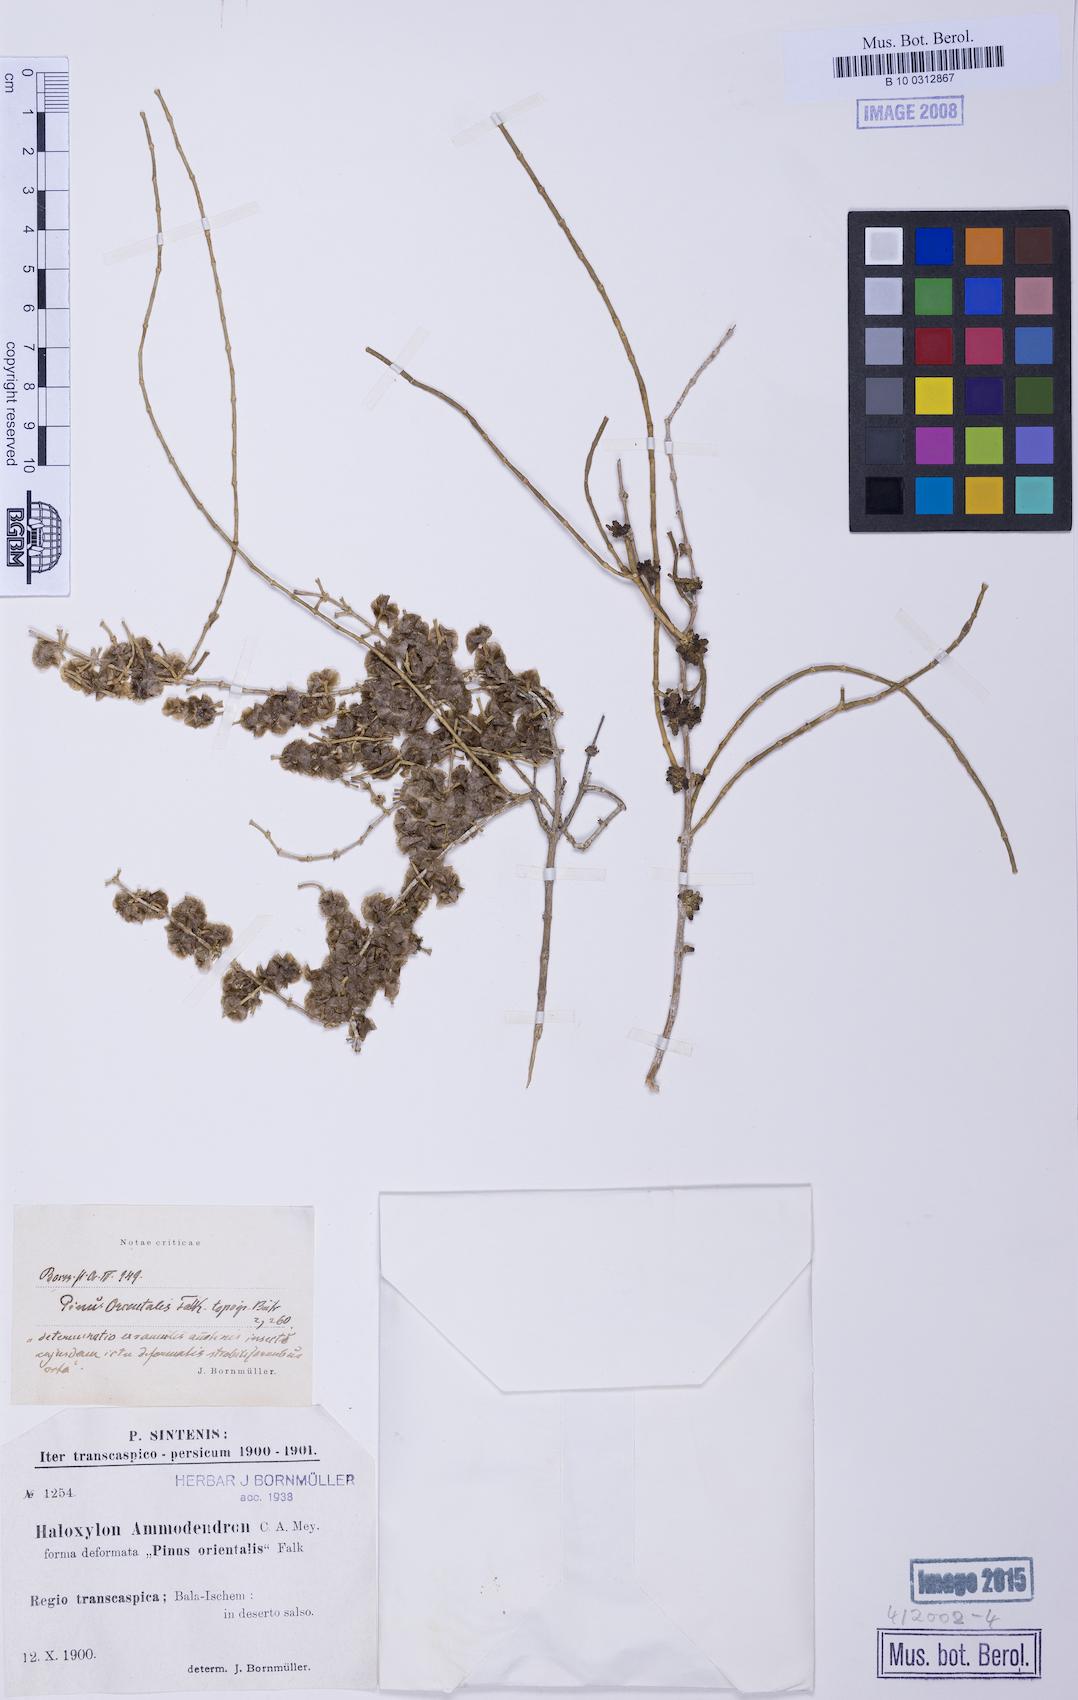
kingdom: Plantae
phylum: Tracheophyta
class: Magnoliopsida
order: Caryophyllales
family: Amaranthaceae
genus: Haloxylon
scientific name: Haloxylon ammodendron
